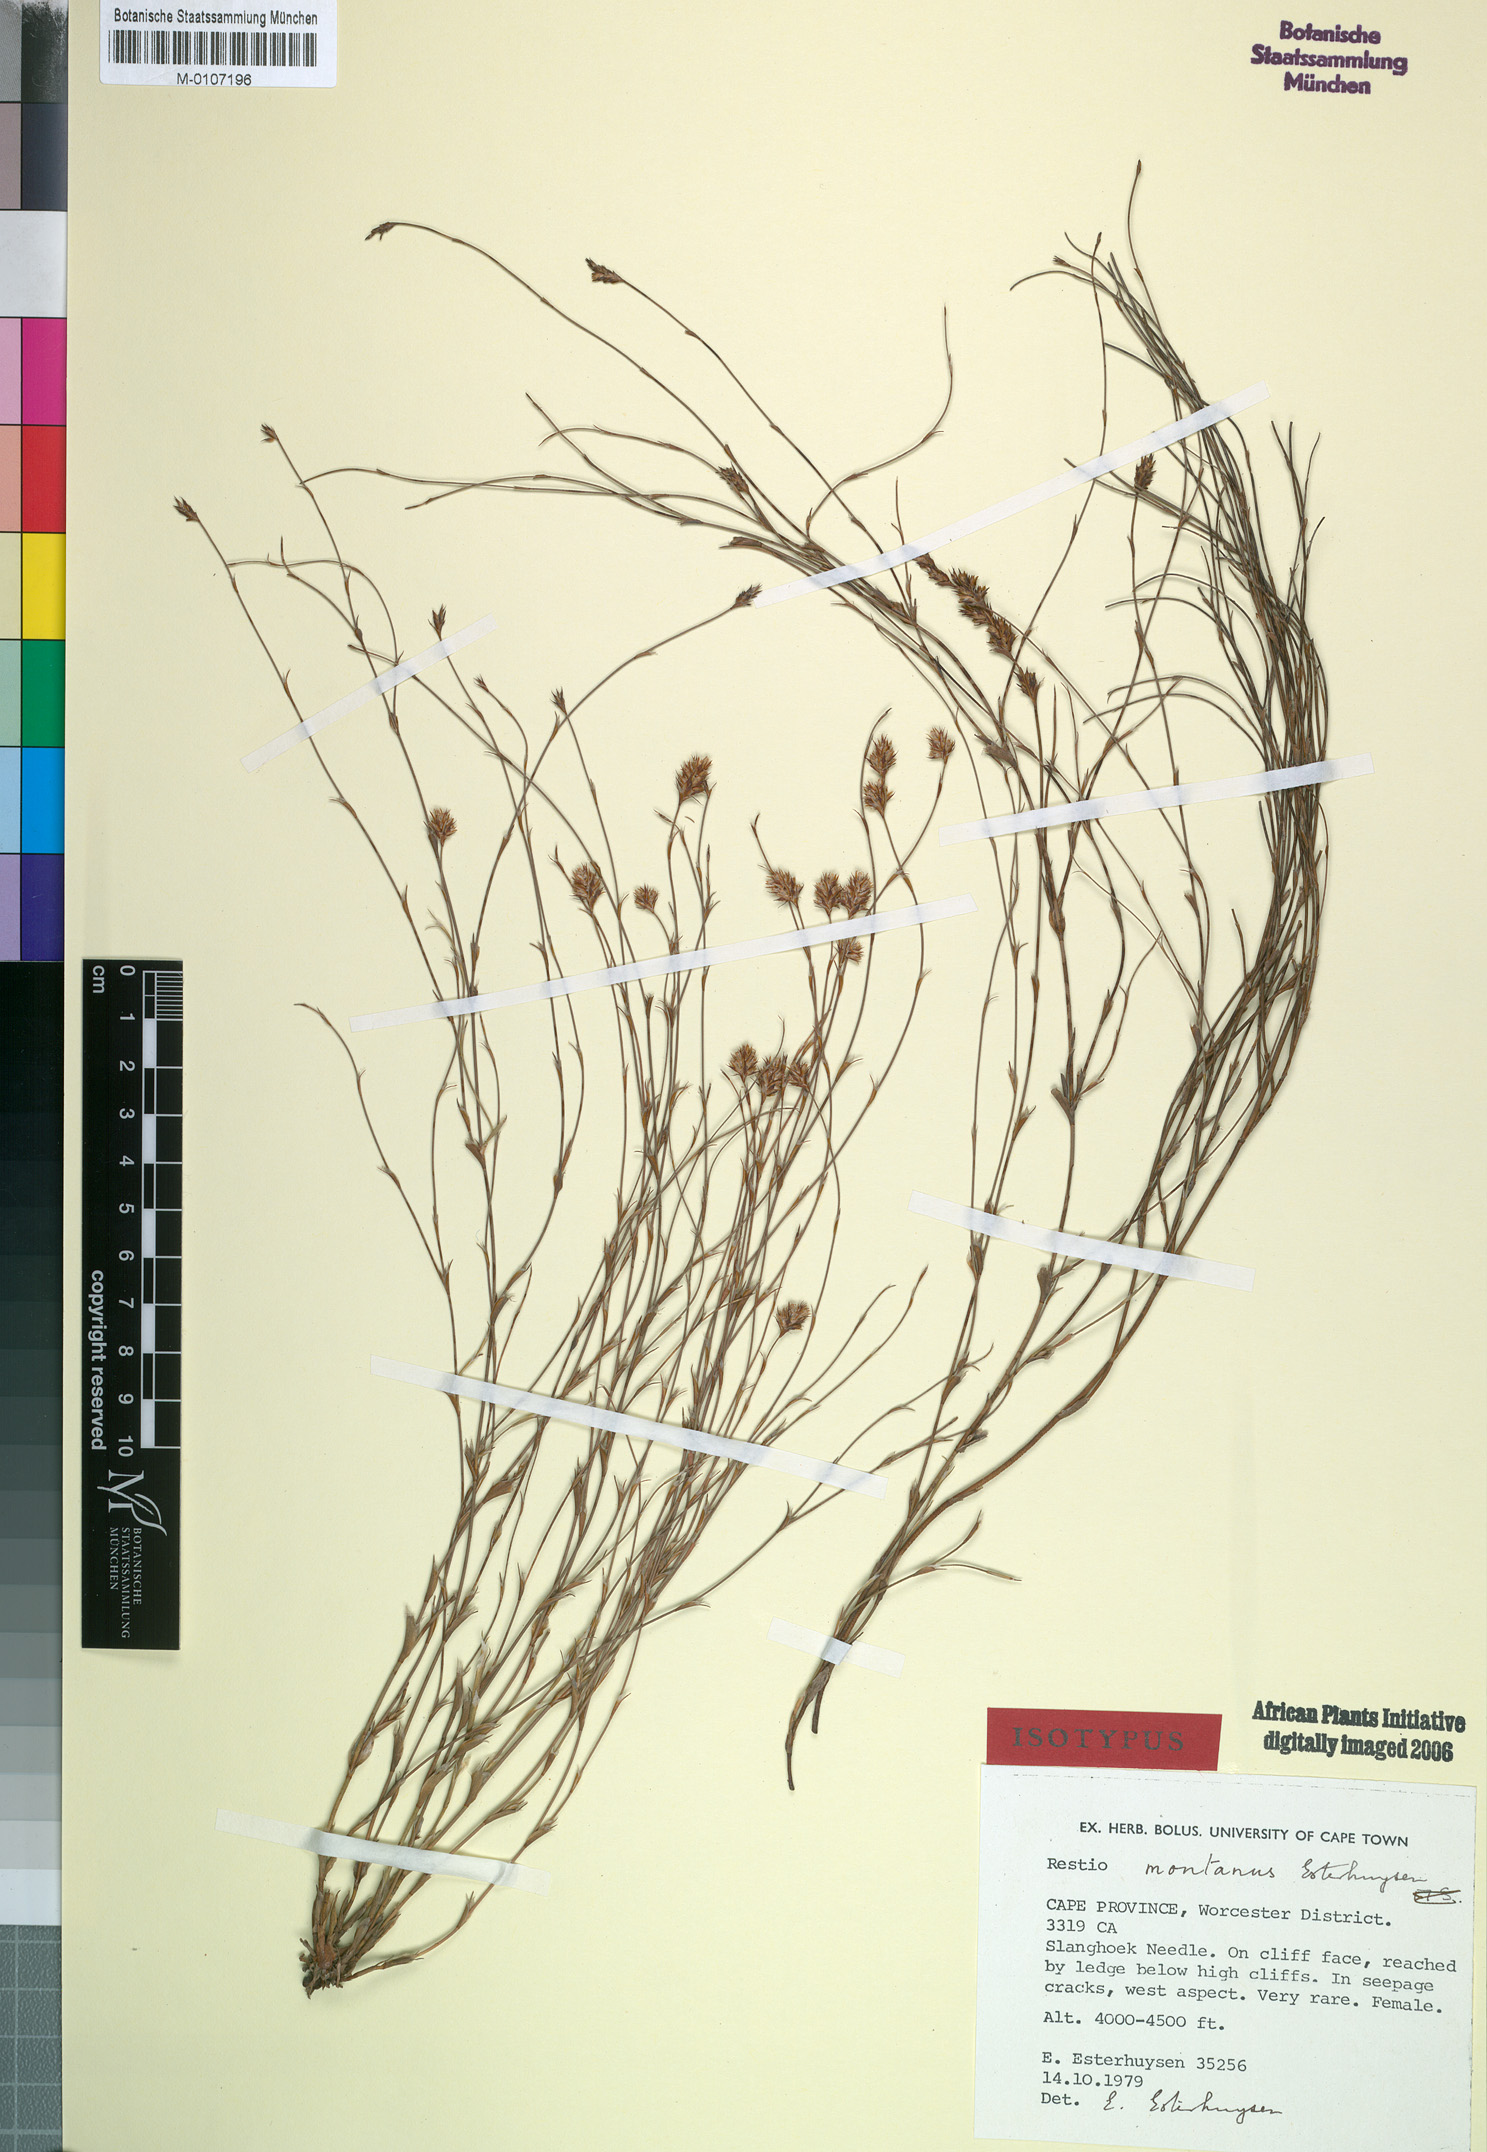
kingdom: Plantae
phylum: Tracheophyta
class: Liliopsida
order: Poales
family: Restionaceae
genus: Restio
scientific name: Restio montanus
